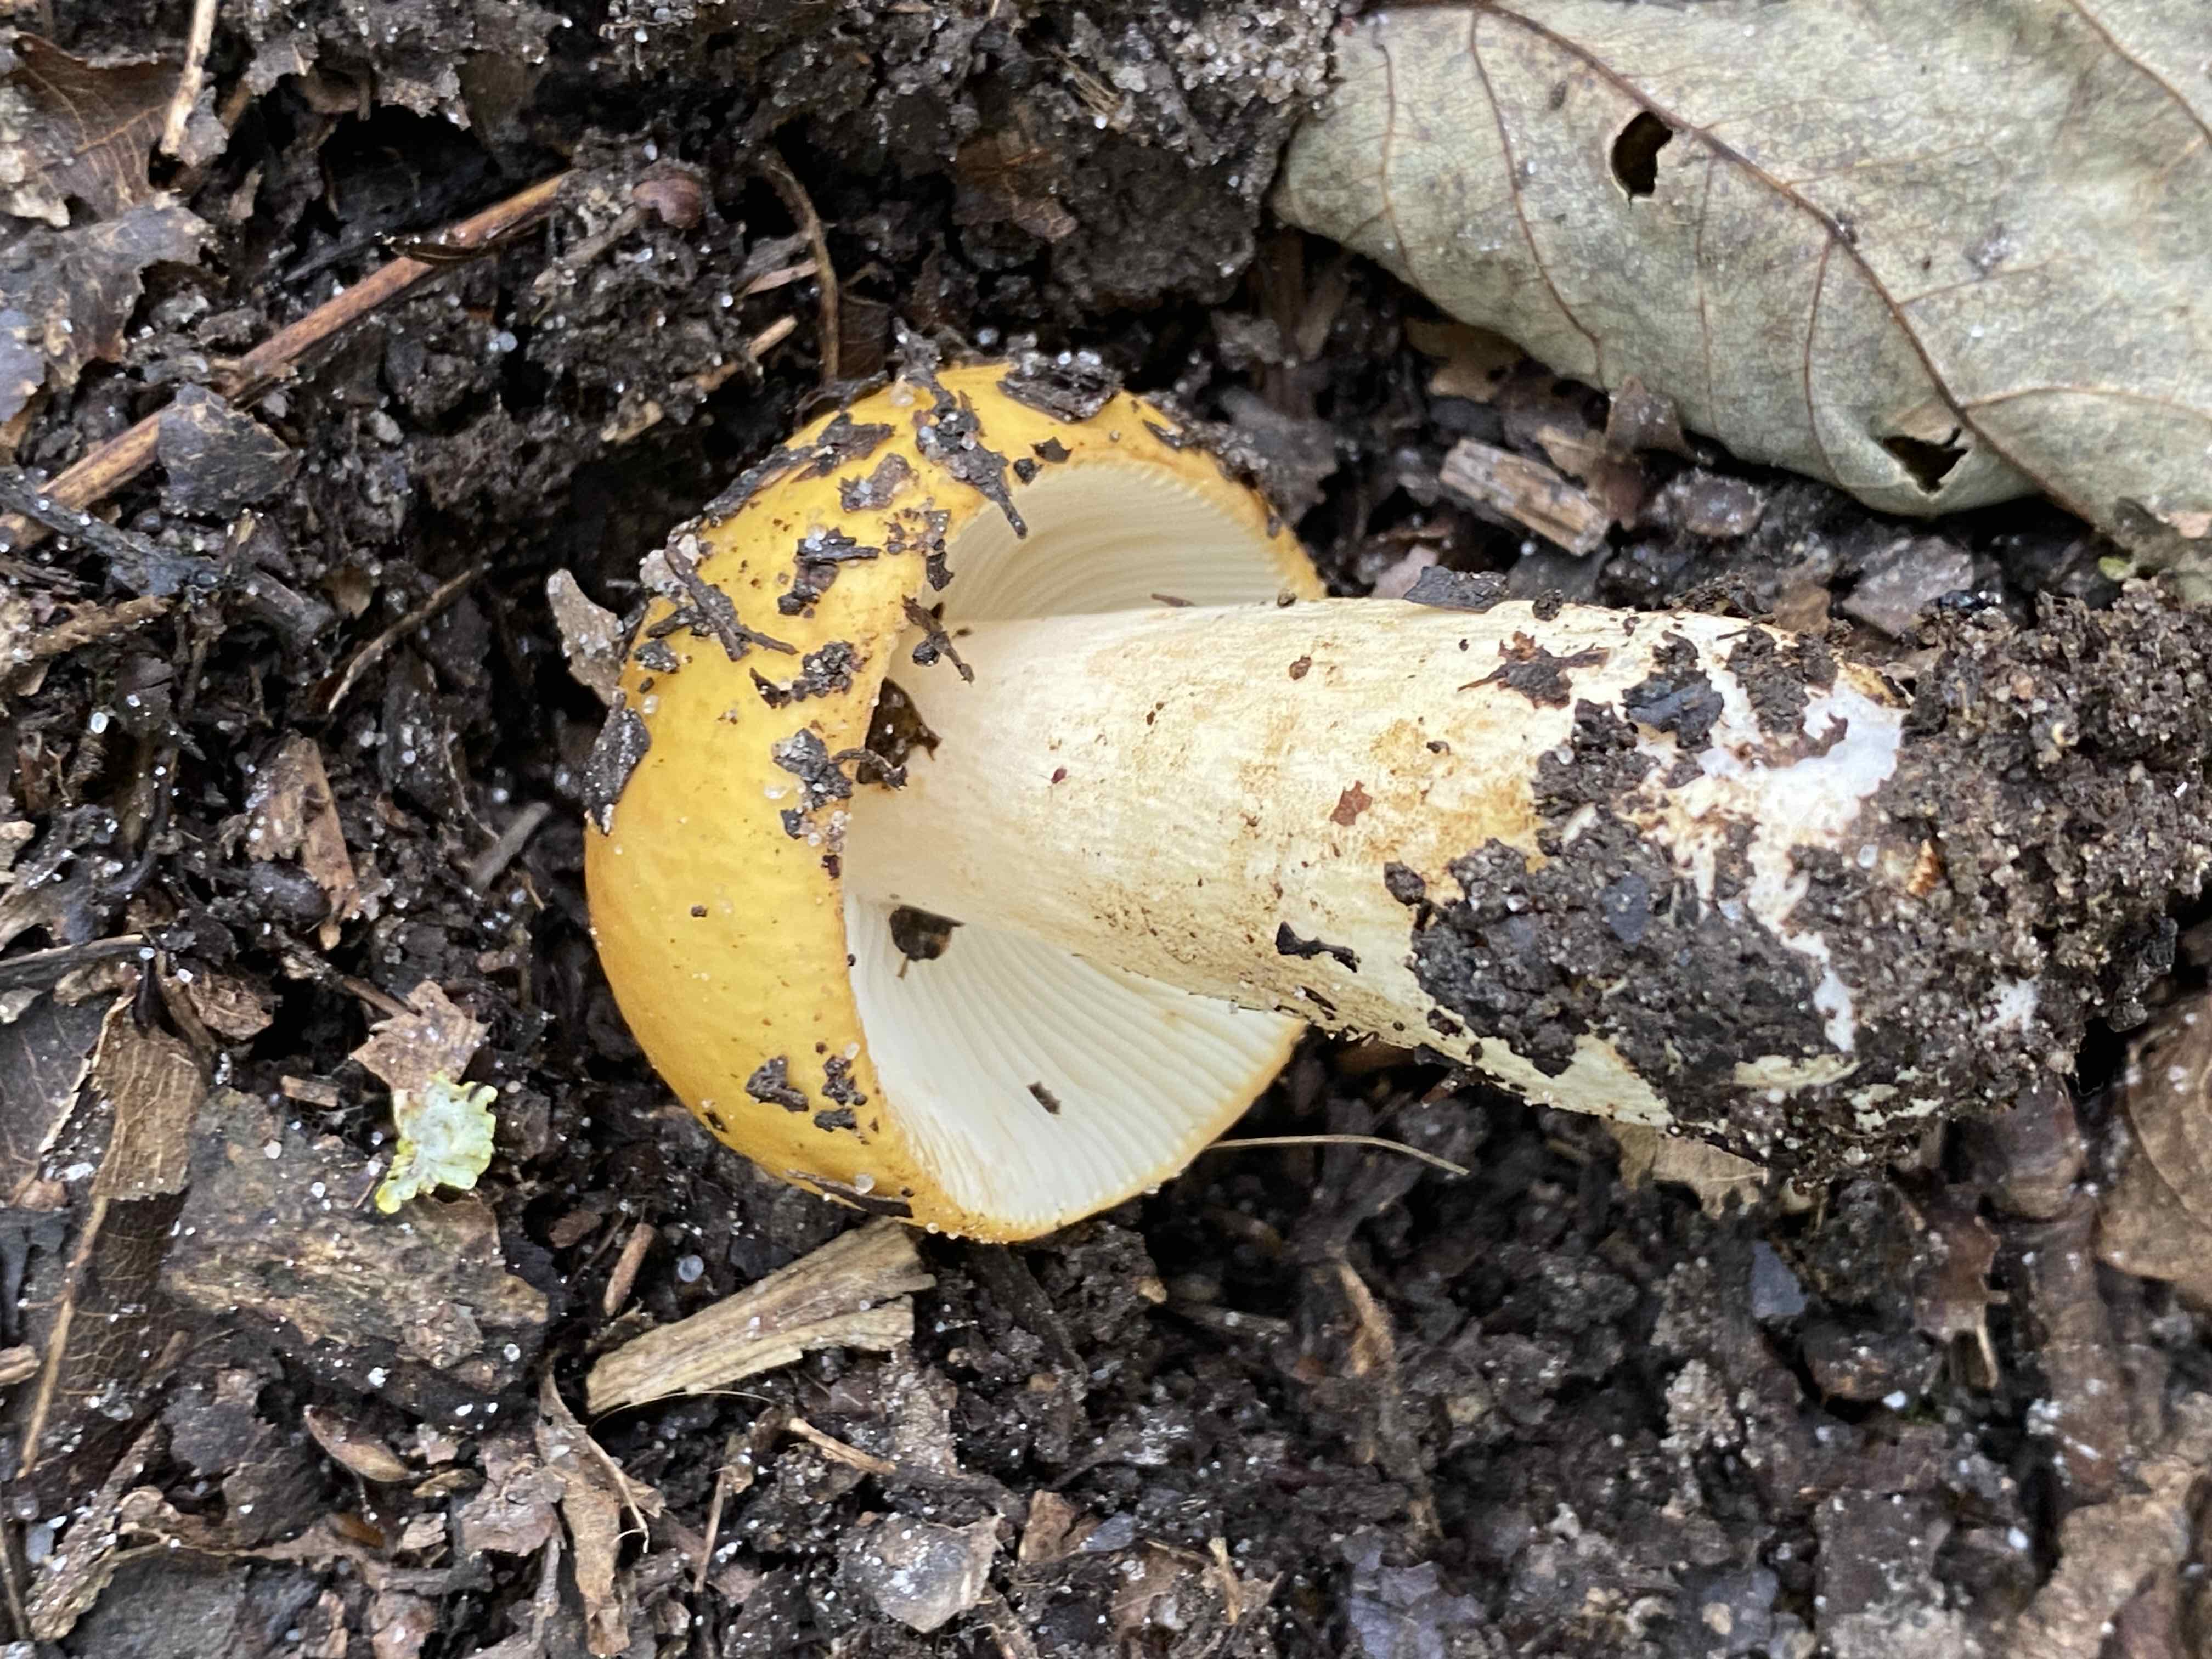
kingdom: Fungi
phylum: Basidiomycota
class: Agaricomycetes
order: Russulales
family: Russulaceae
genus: Russula
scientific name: Russula ochroleuca
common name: okkergul skørhat
